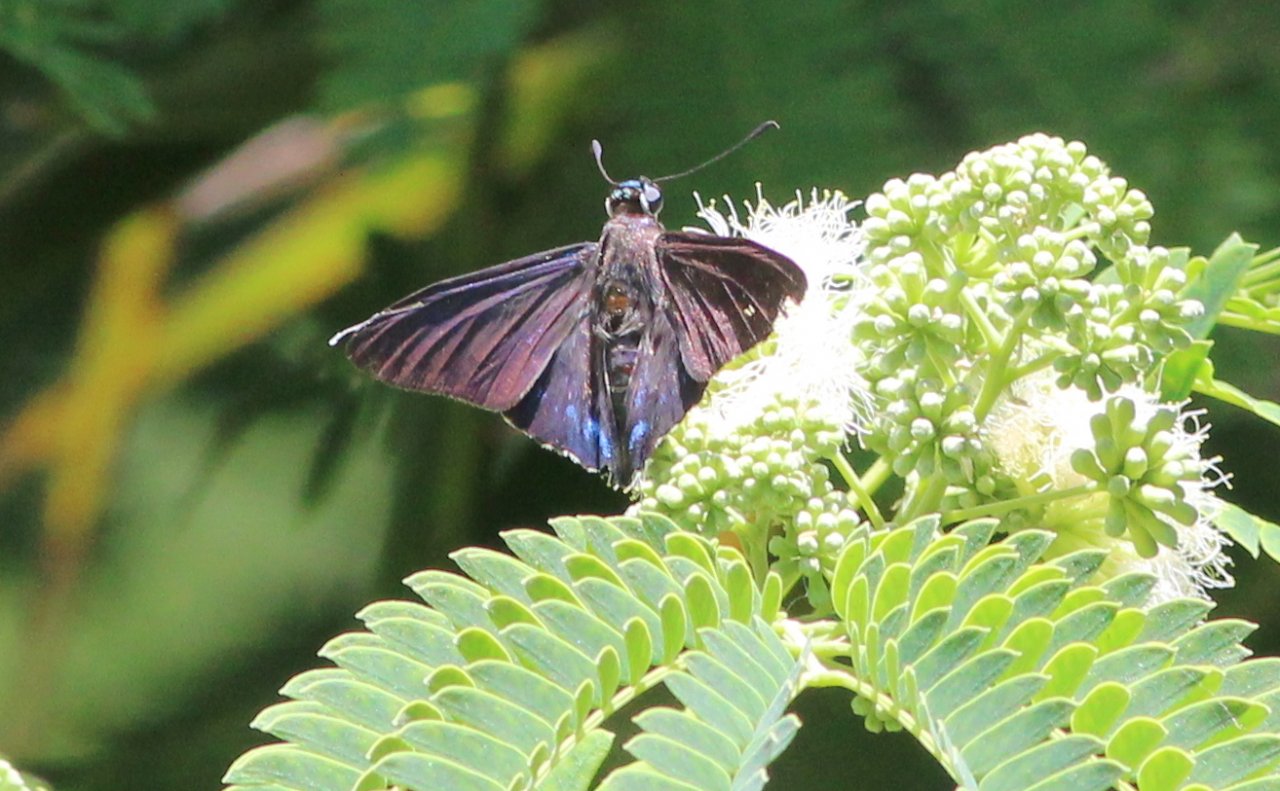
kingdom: Animalia
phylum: Arthropoda
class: Insecta
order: Lepidoptera
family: Hesperiidae
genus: Phocides
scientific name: Phocides pigmalion
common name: Mangrove Skipper
